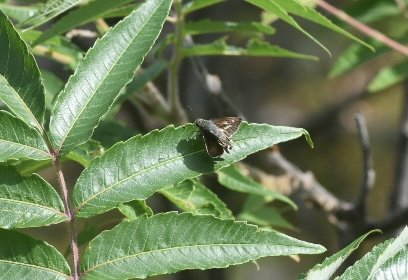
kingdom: Animalia
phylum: Arthropoda
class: Insecta
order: Lepidoptera
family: Hesperiidae
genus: Vernia
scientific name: Vernia verna
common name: Little Glassywing
